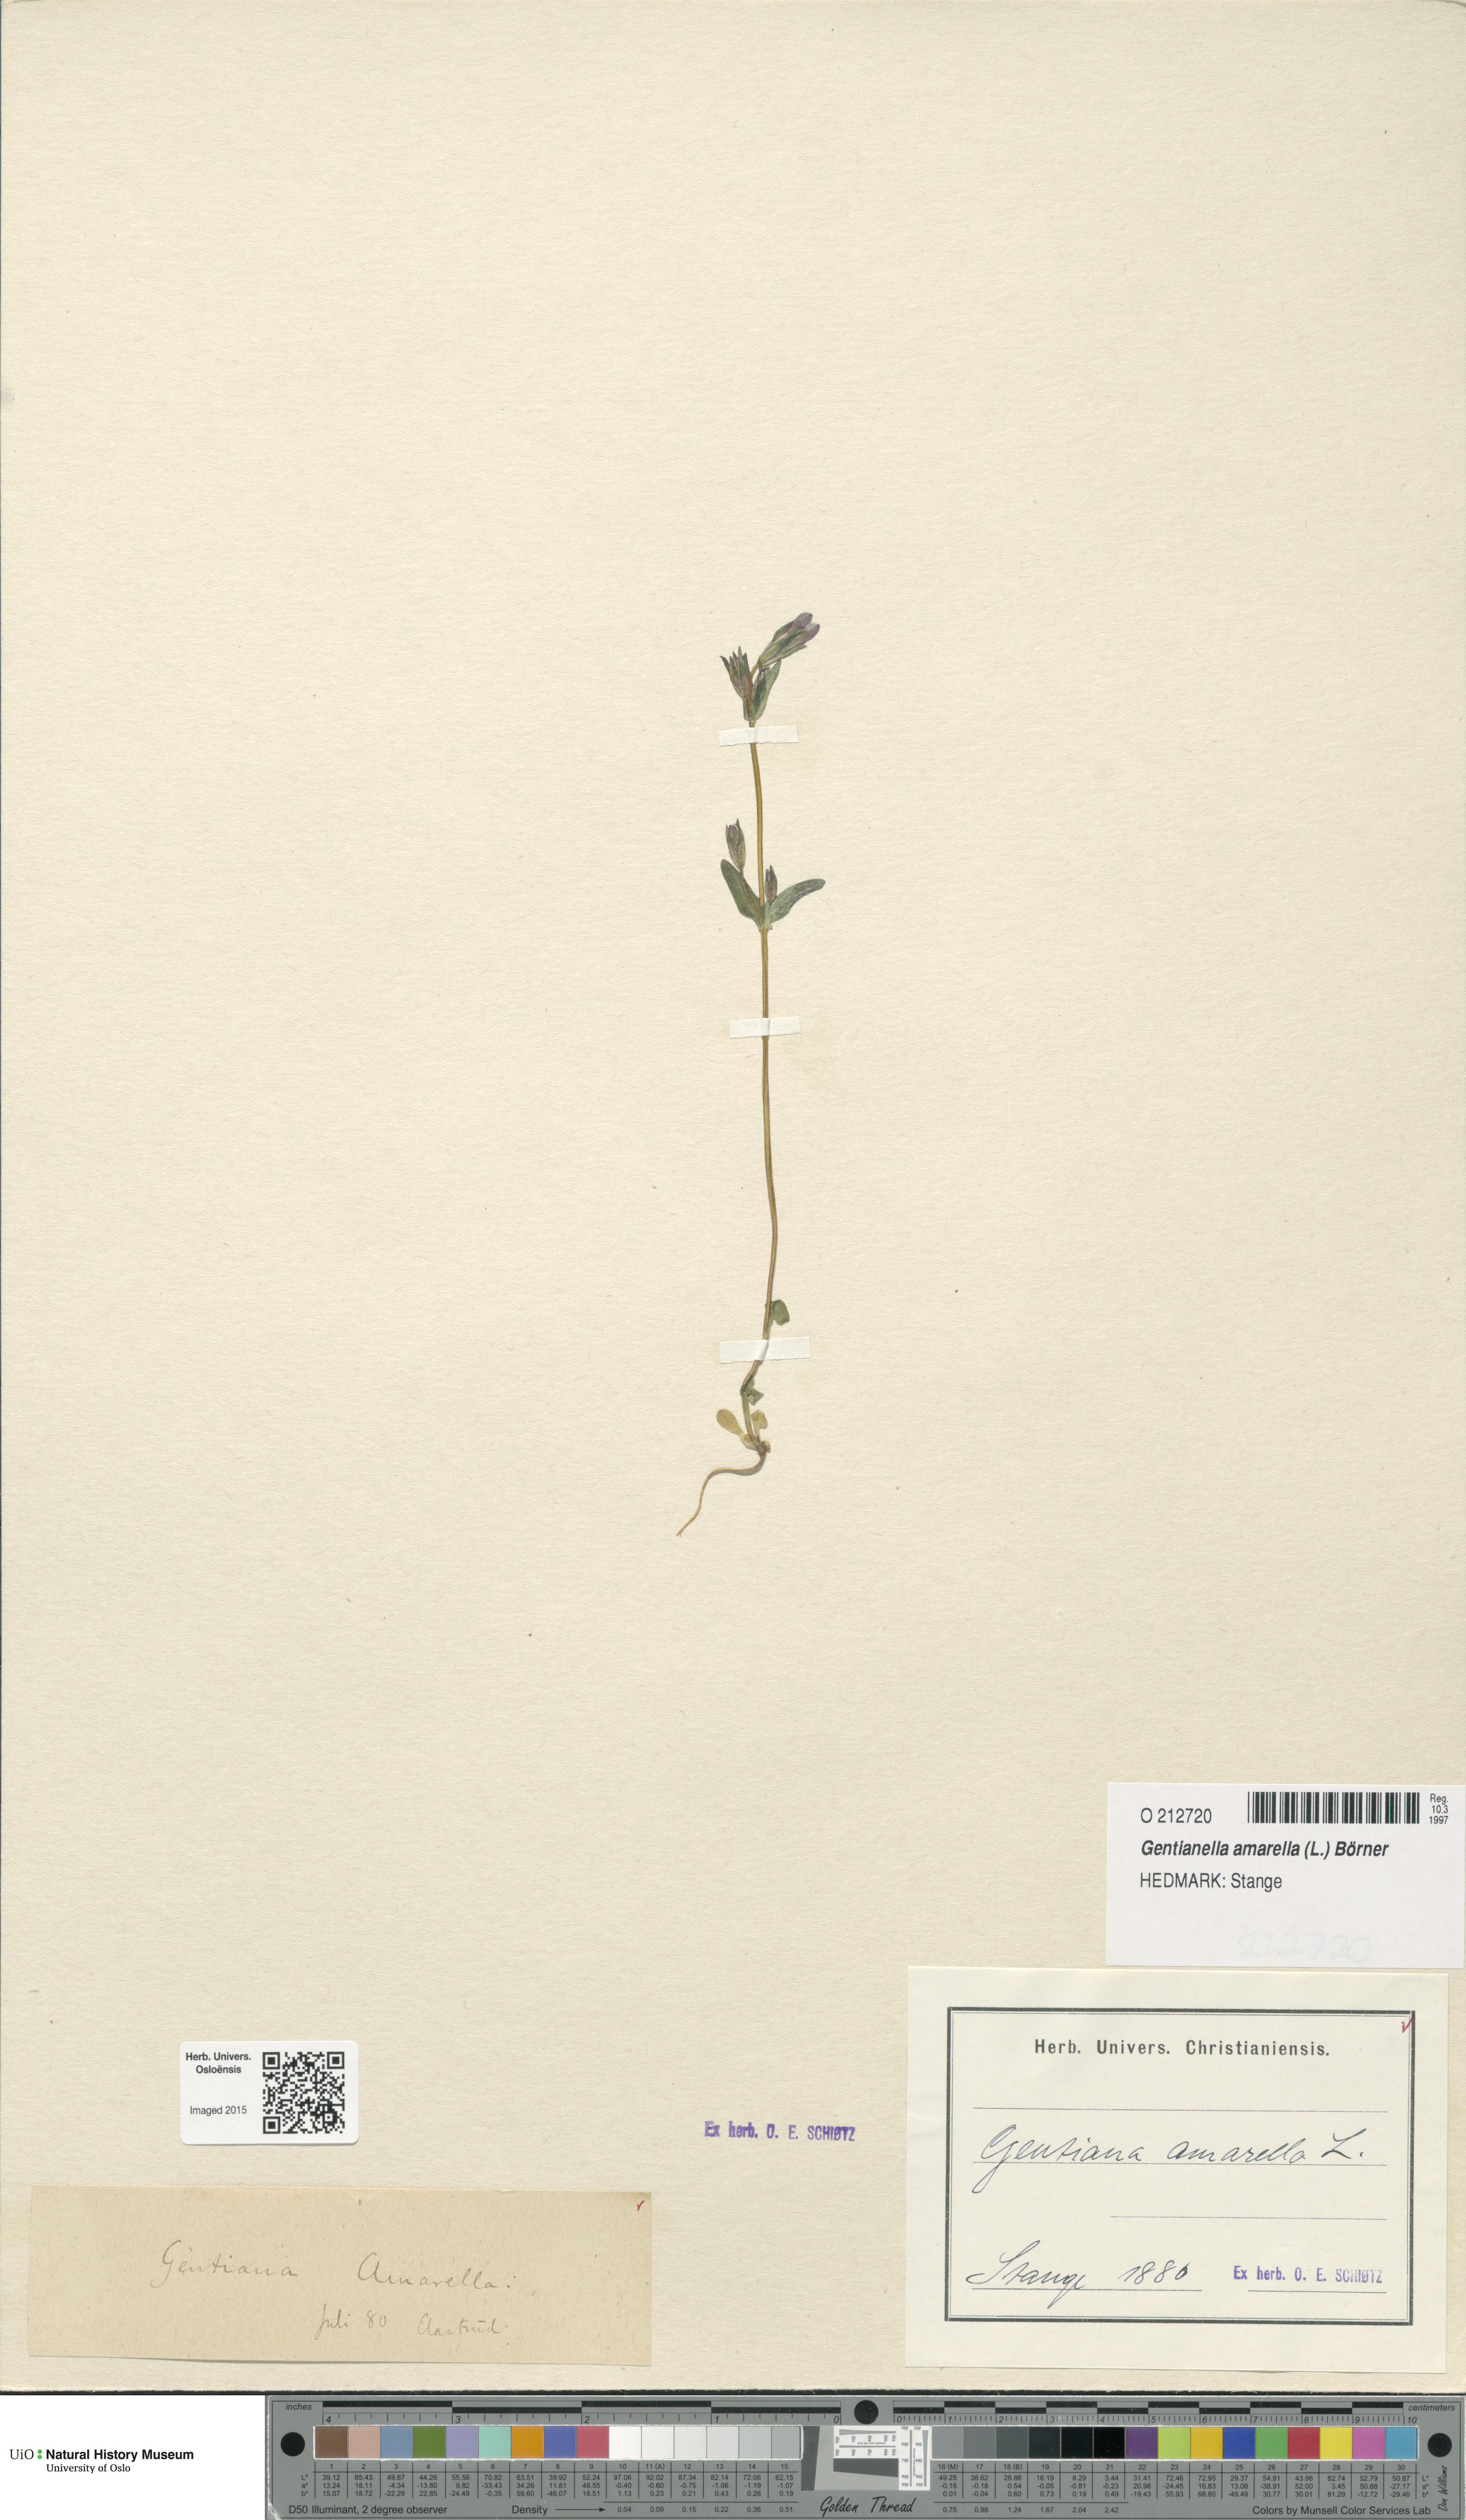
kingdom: Plantae
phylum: Tracheophyta
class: Magnoliopsida
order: Gentianales
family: Gentianaceae
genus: Gentianella
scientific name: Gentianella amarella
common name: Autumn gentian
